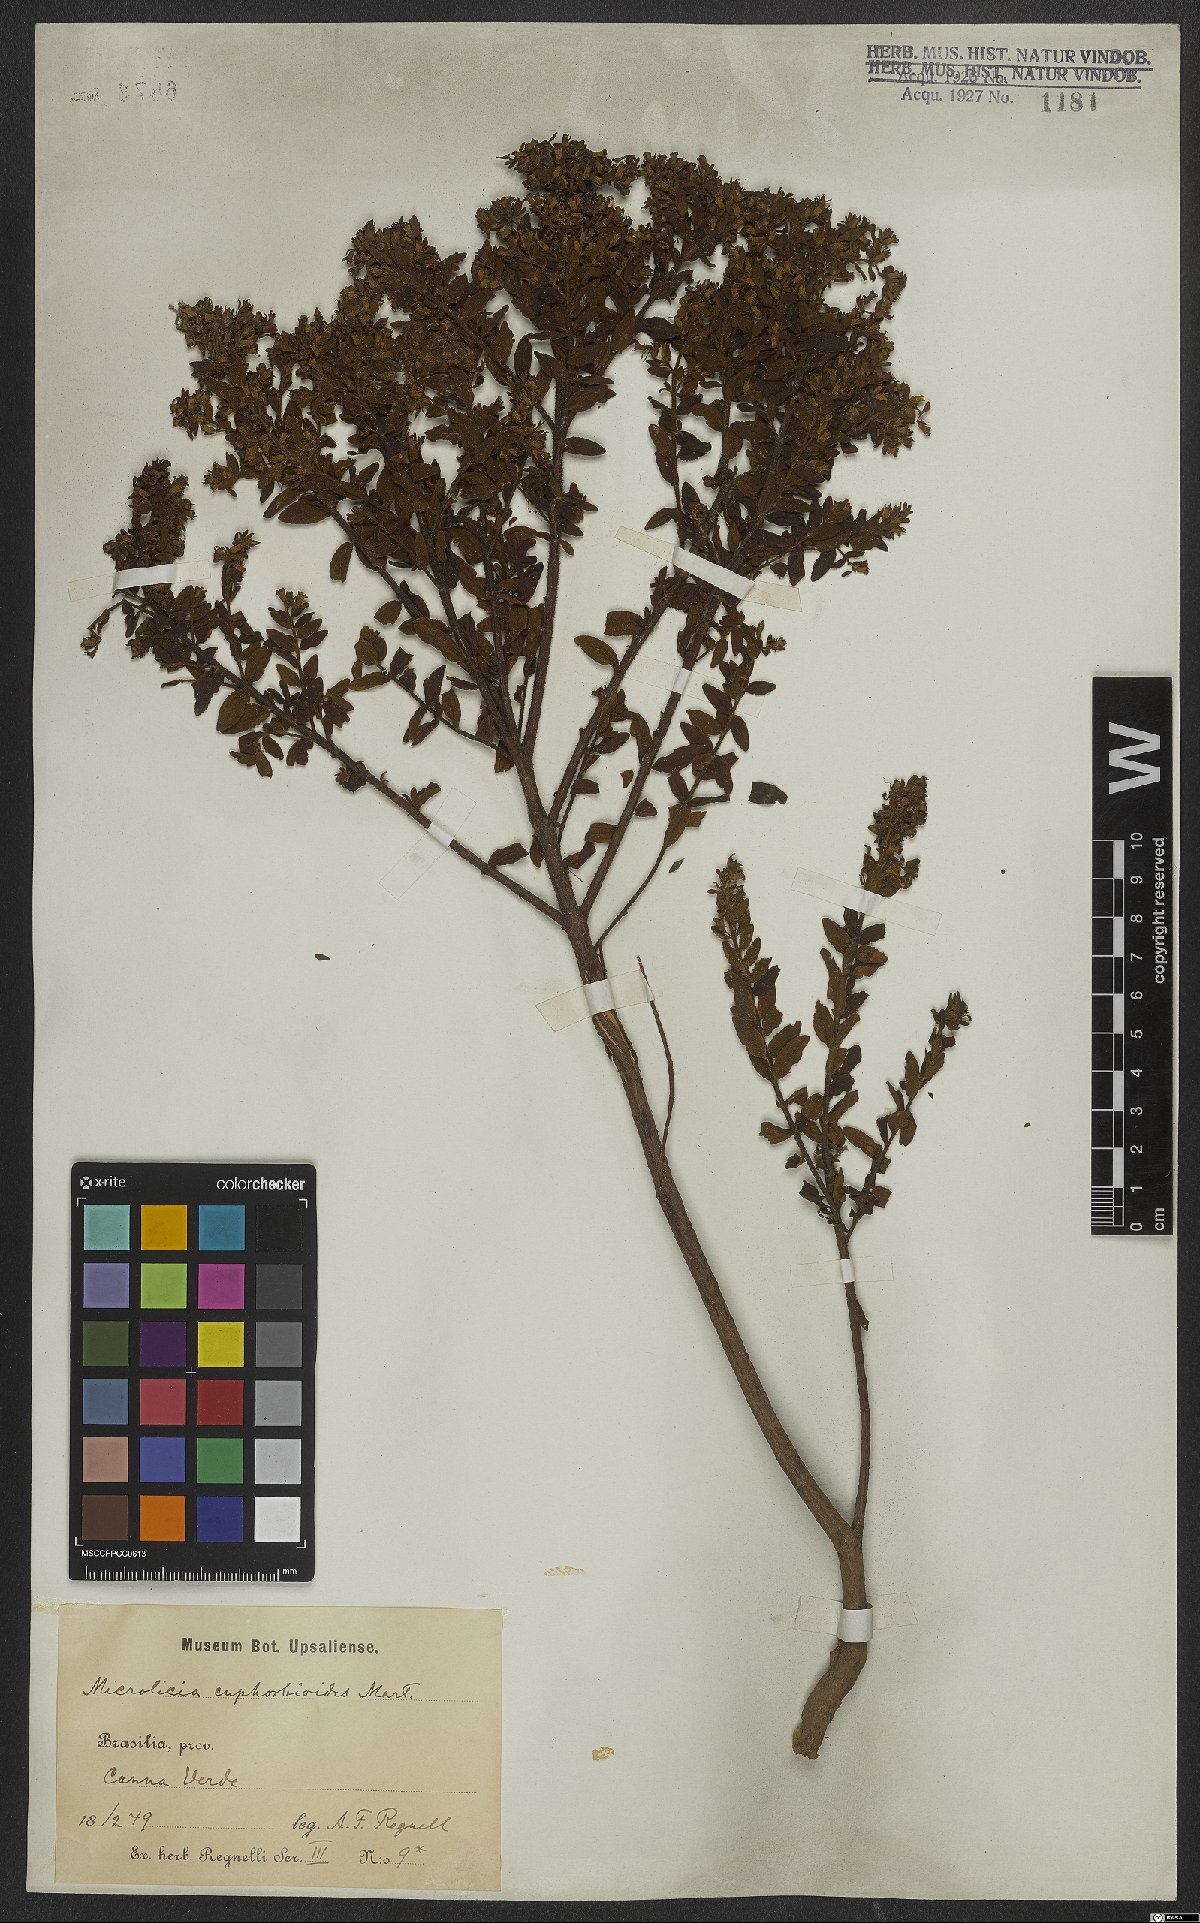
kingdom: Plantae
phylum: Tracheophyta
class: Magnoliopsida
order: Myrtales
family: Melastomataceae
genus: Microlicia
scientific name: Microlicia euphorbioides
